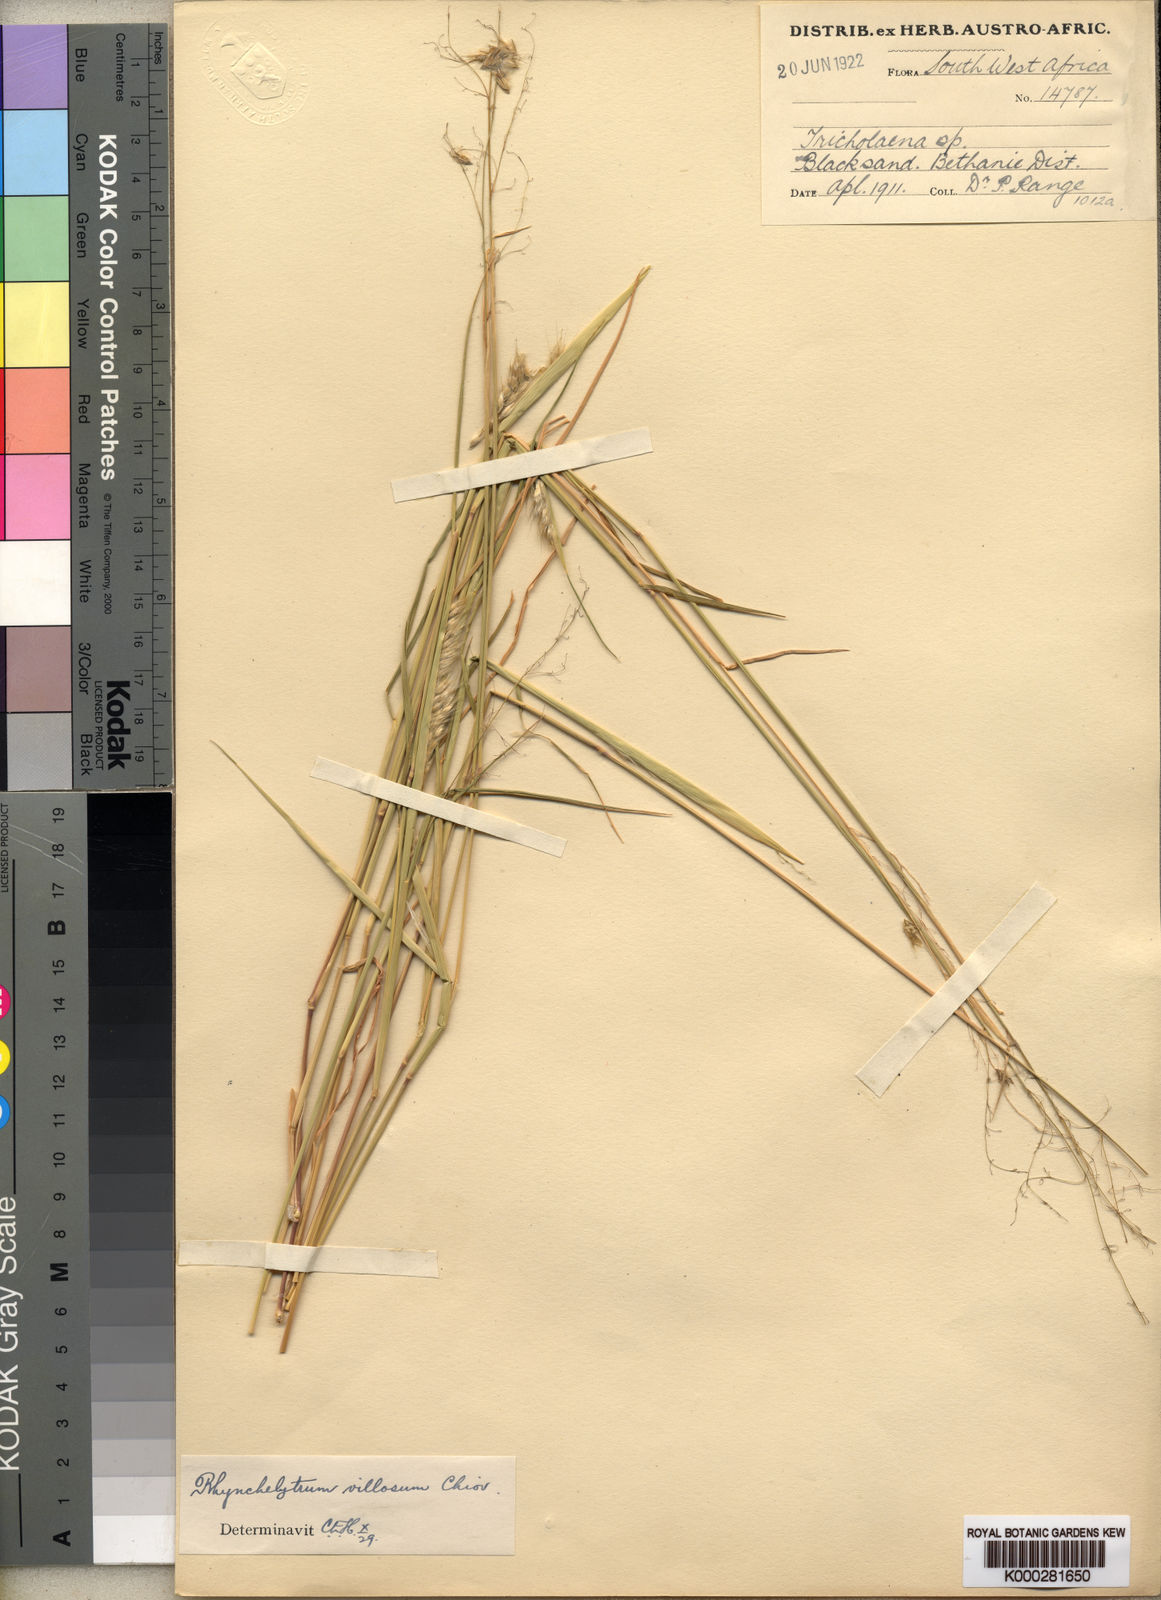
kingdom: Plantae
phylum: Tracheophyta
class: Liliopsida
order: Poales
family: Poaceae
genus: Melinis
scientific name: Melinis repens
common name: Rose natal grass
